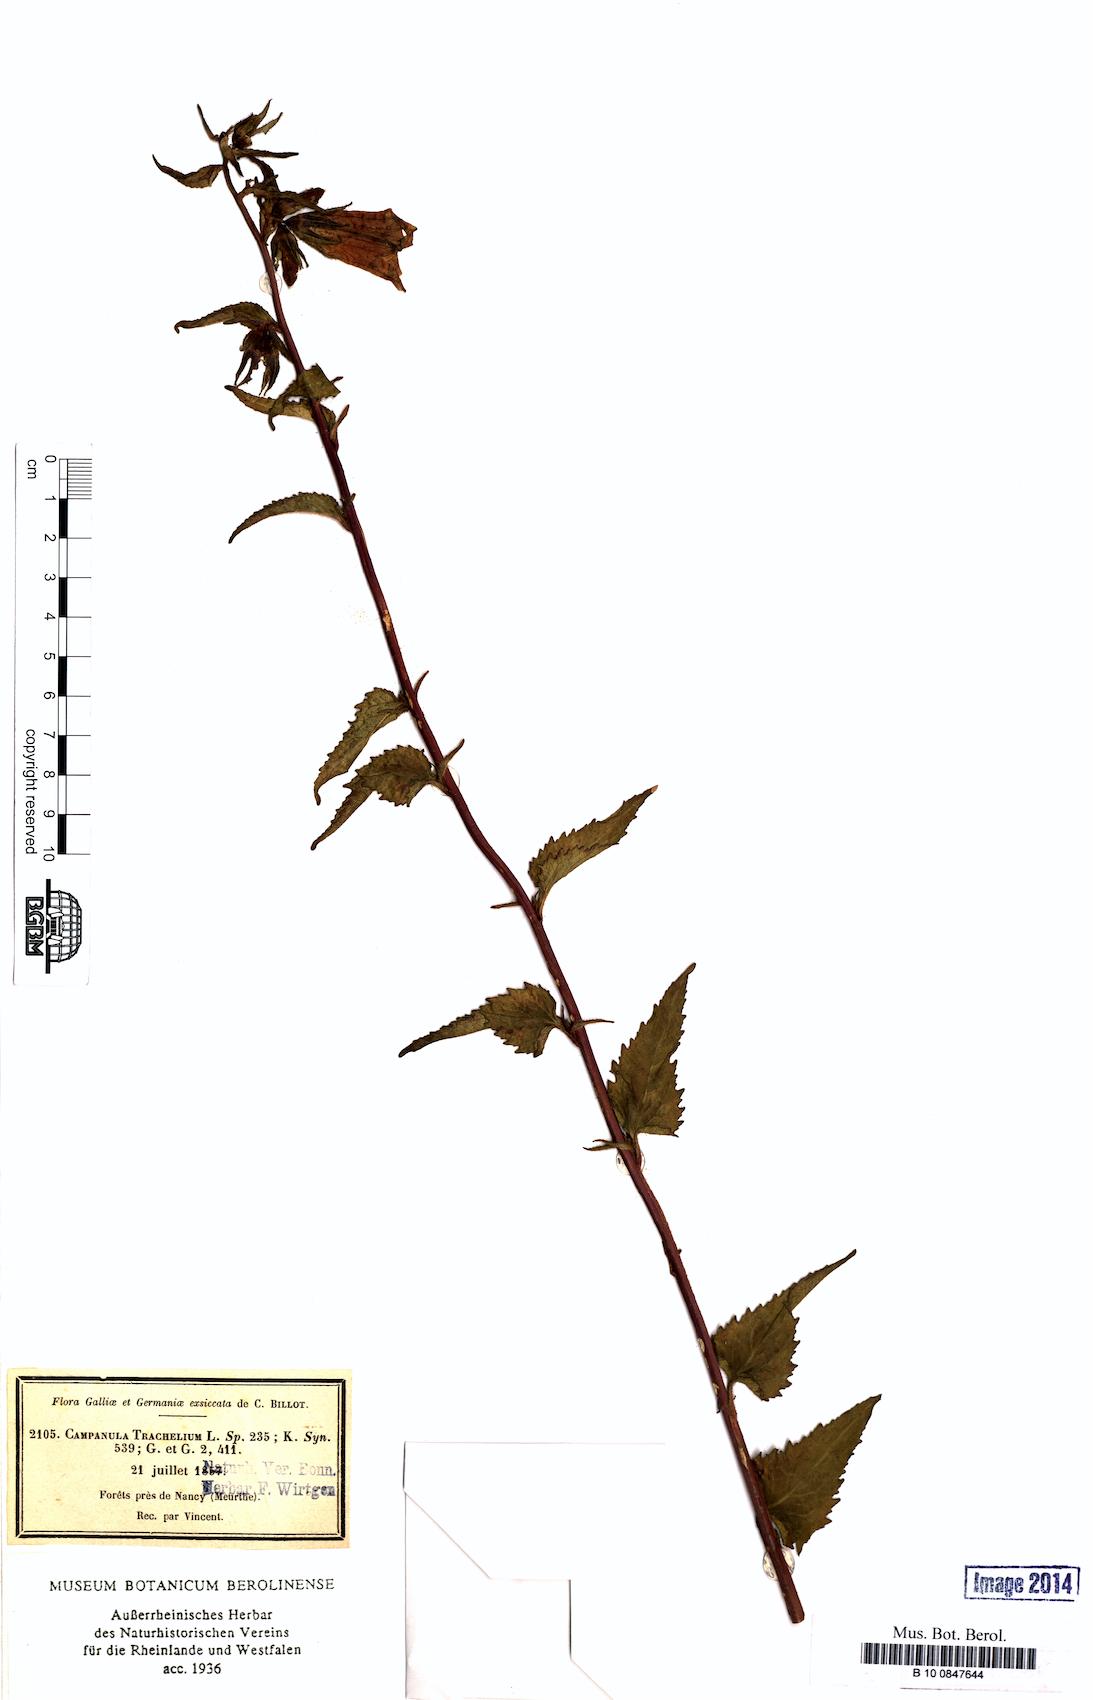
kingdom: Plantae
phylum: Tracheophyta
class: Magnoliopsida
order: Asterales
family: Campanulaceae
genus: Campanula
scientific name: Campanula trachelium
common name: Nettle-leaved bellflower
